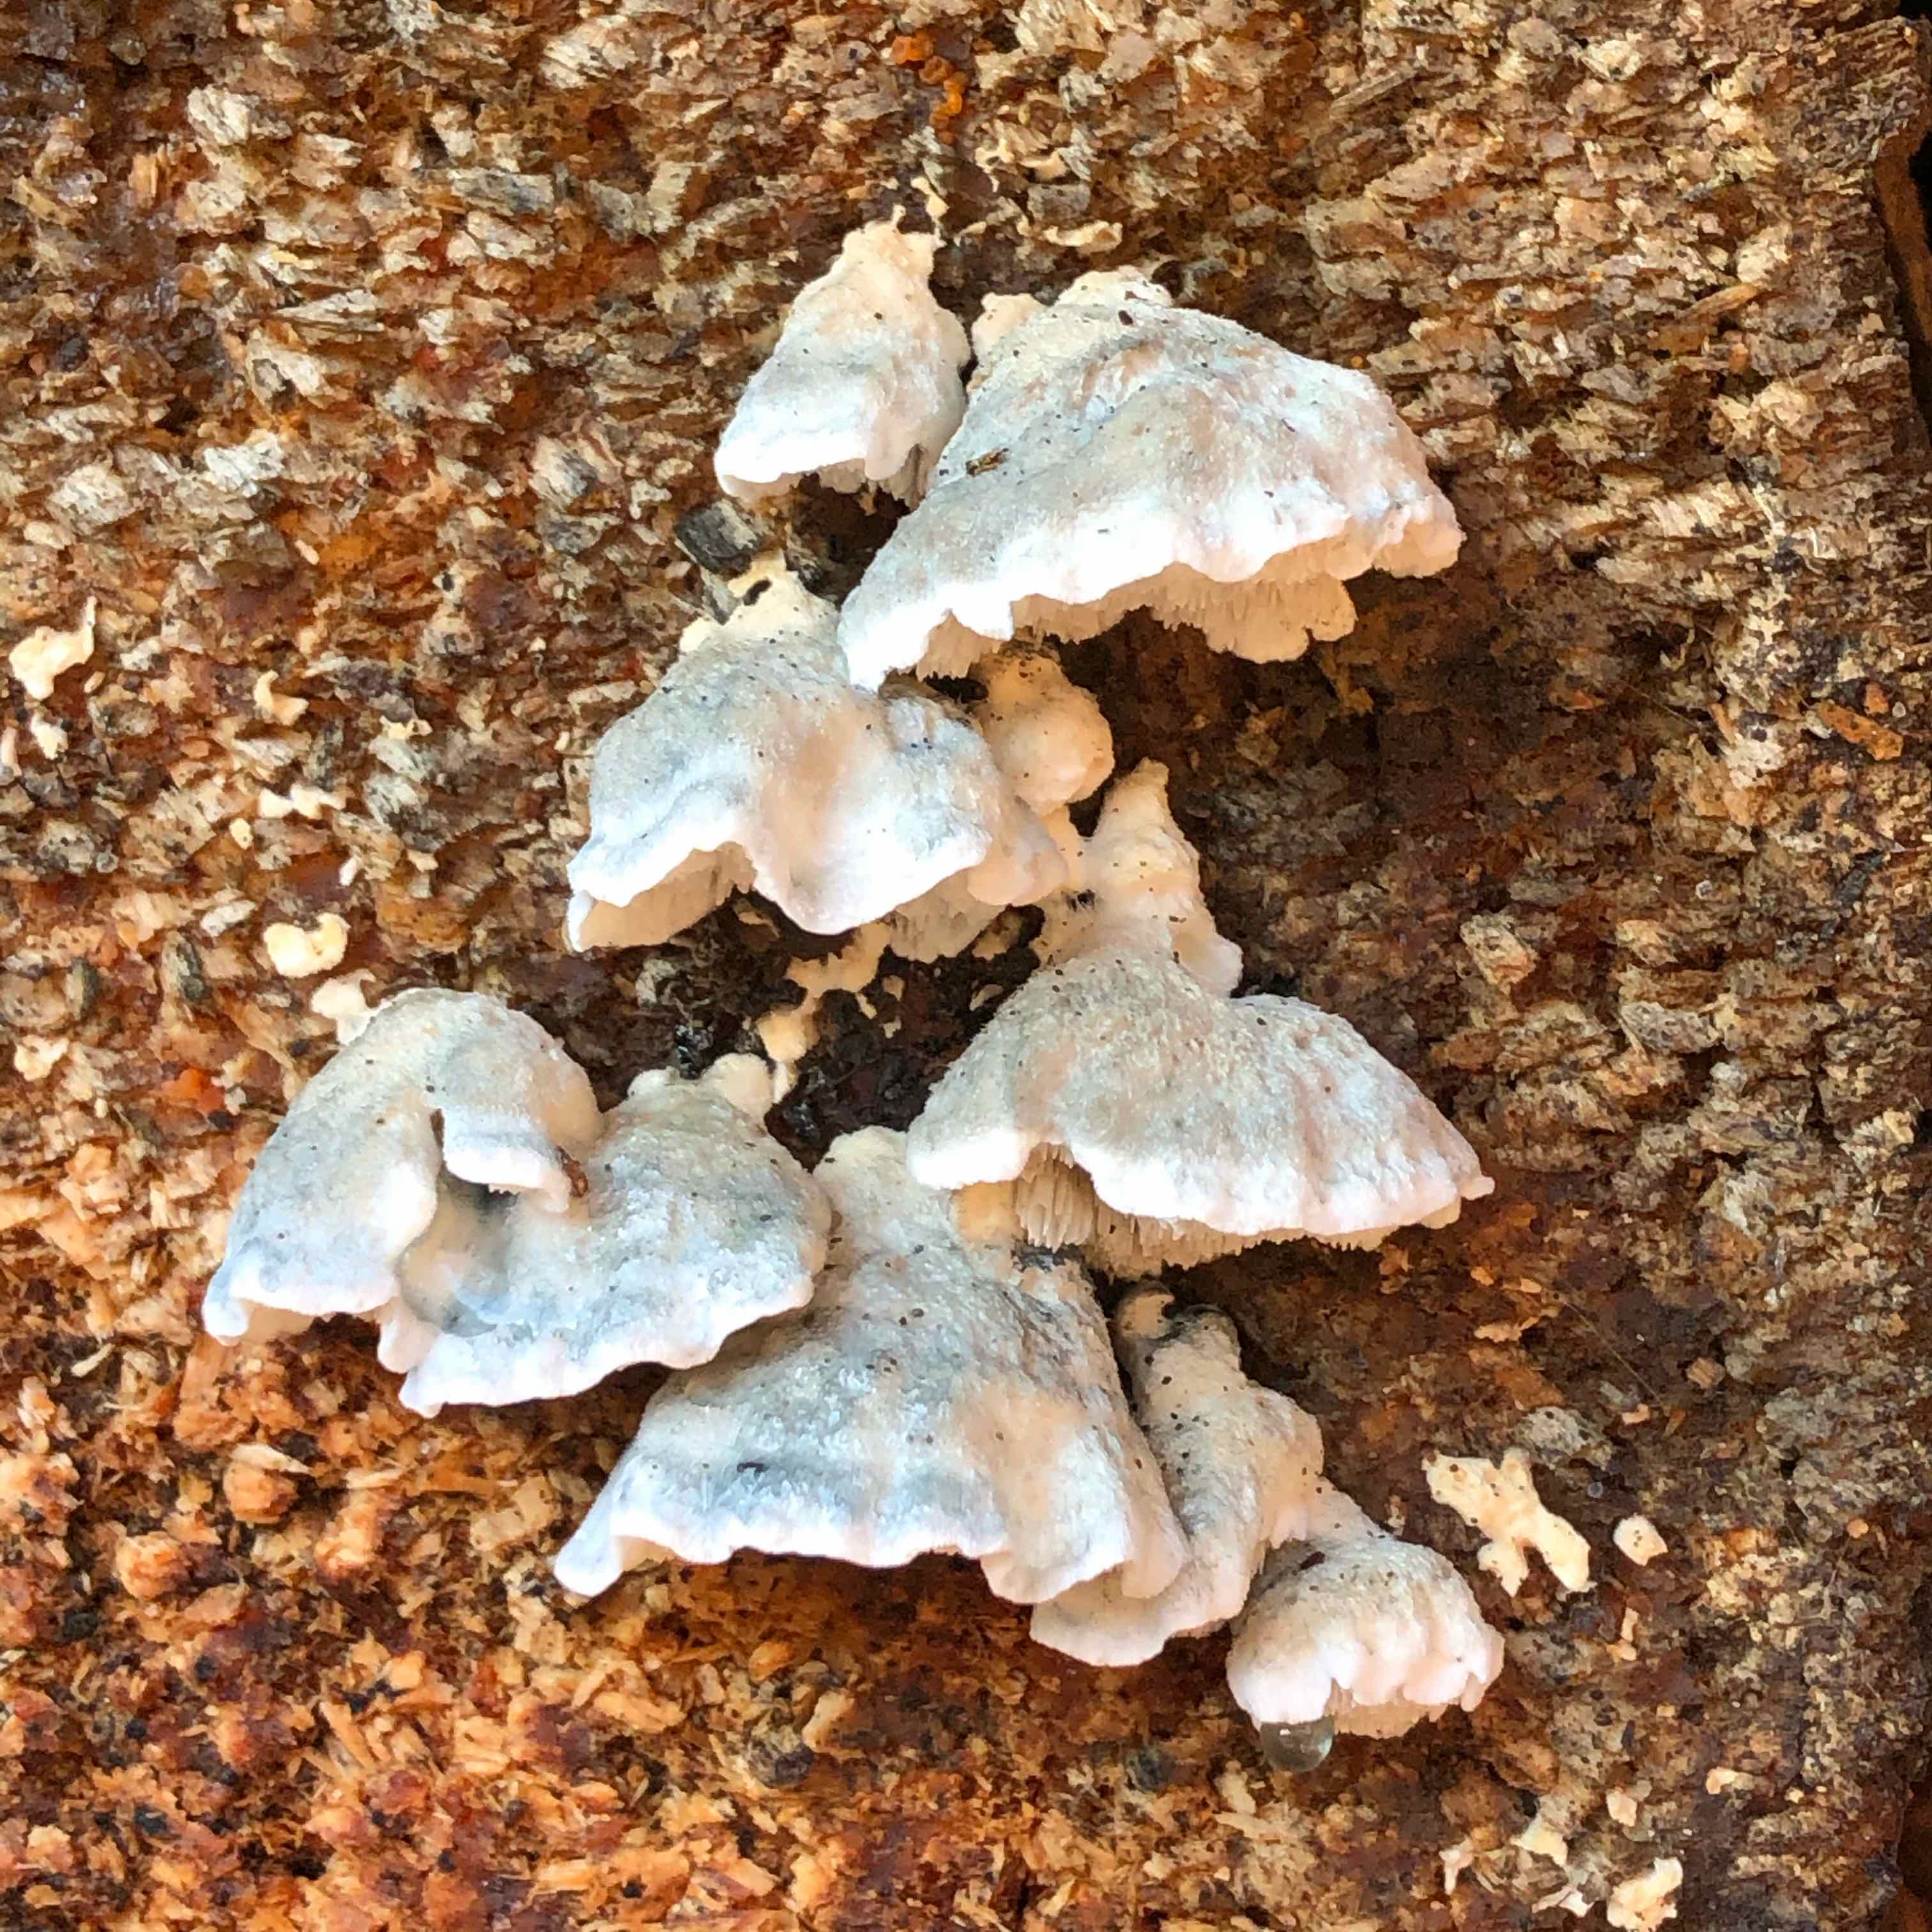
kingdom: Fungi
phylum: Basidiomycota
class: Agaricomycetes
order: Polyporales
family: Polyporaceae
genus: Cyanosporus
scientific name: Cyanosporus caesius
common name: blålig kødporesvamp
